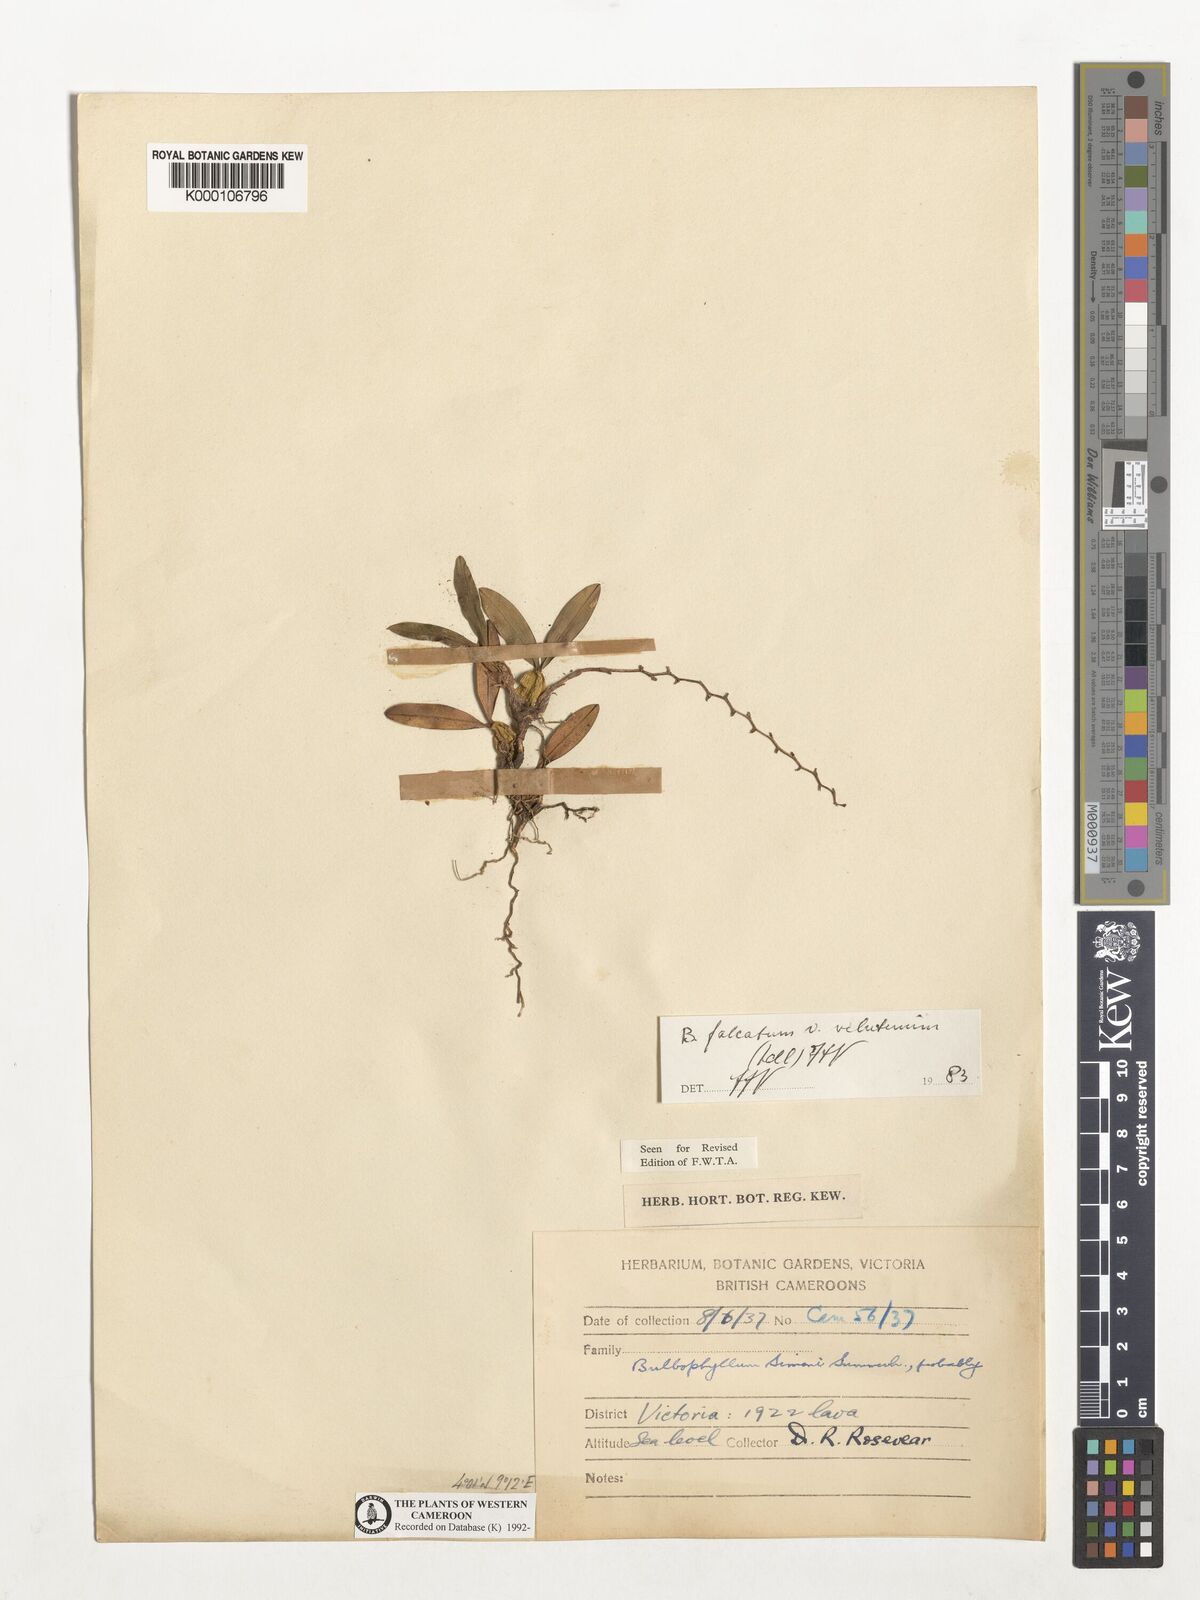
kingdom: Plantae
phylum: Tracheophyta
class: Liliopsida
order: Asparagales
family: Orchidaceae
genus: Bulbophyllum
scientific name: Bulbophyllum falcatum
